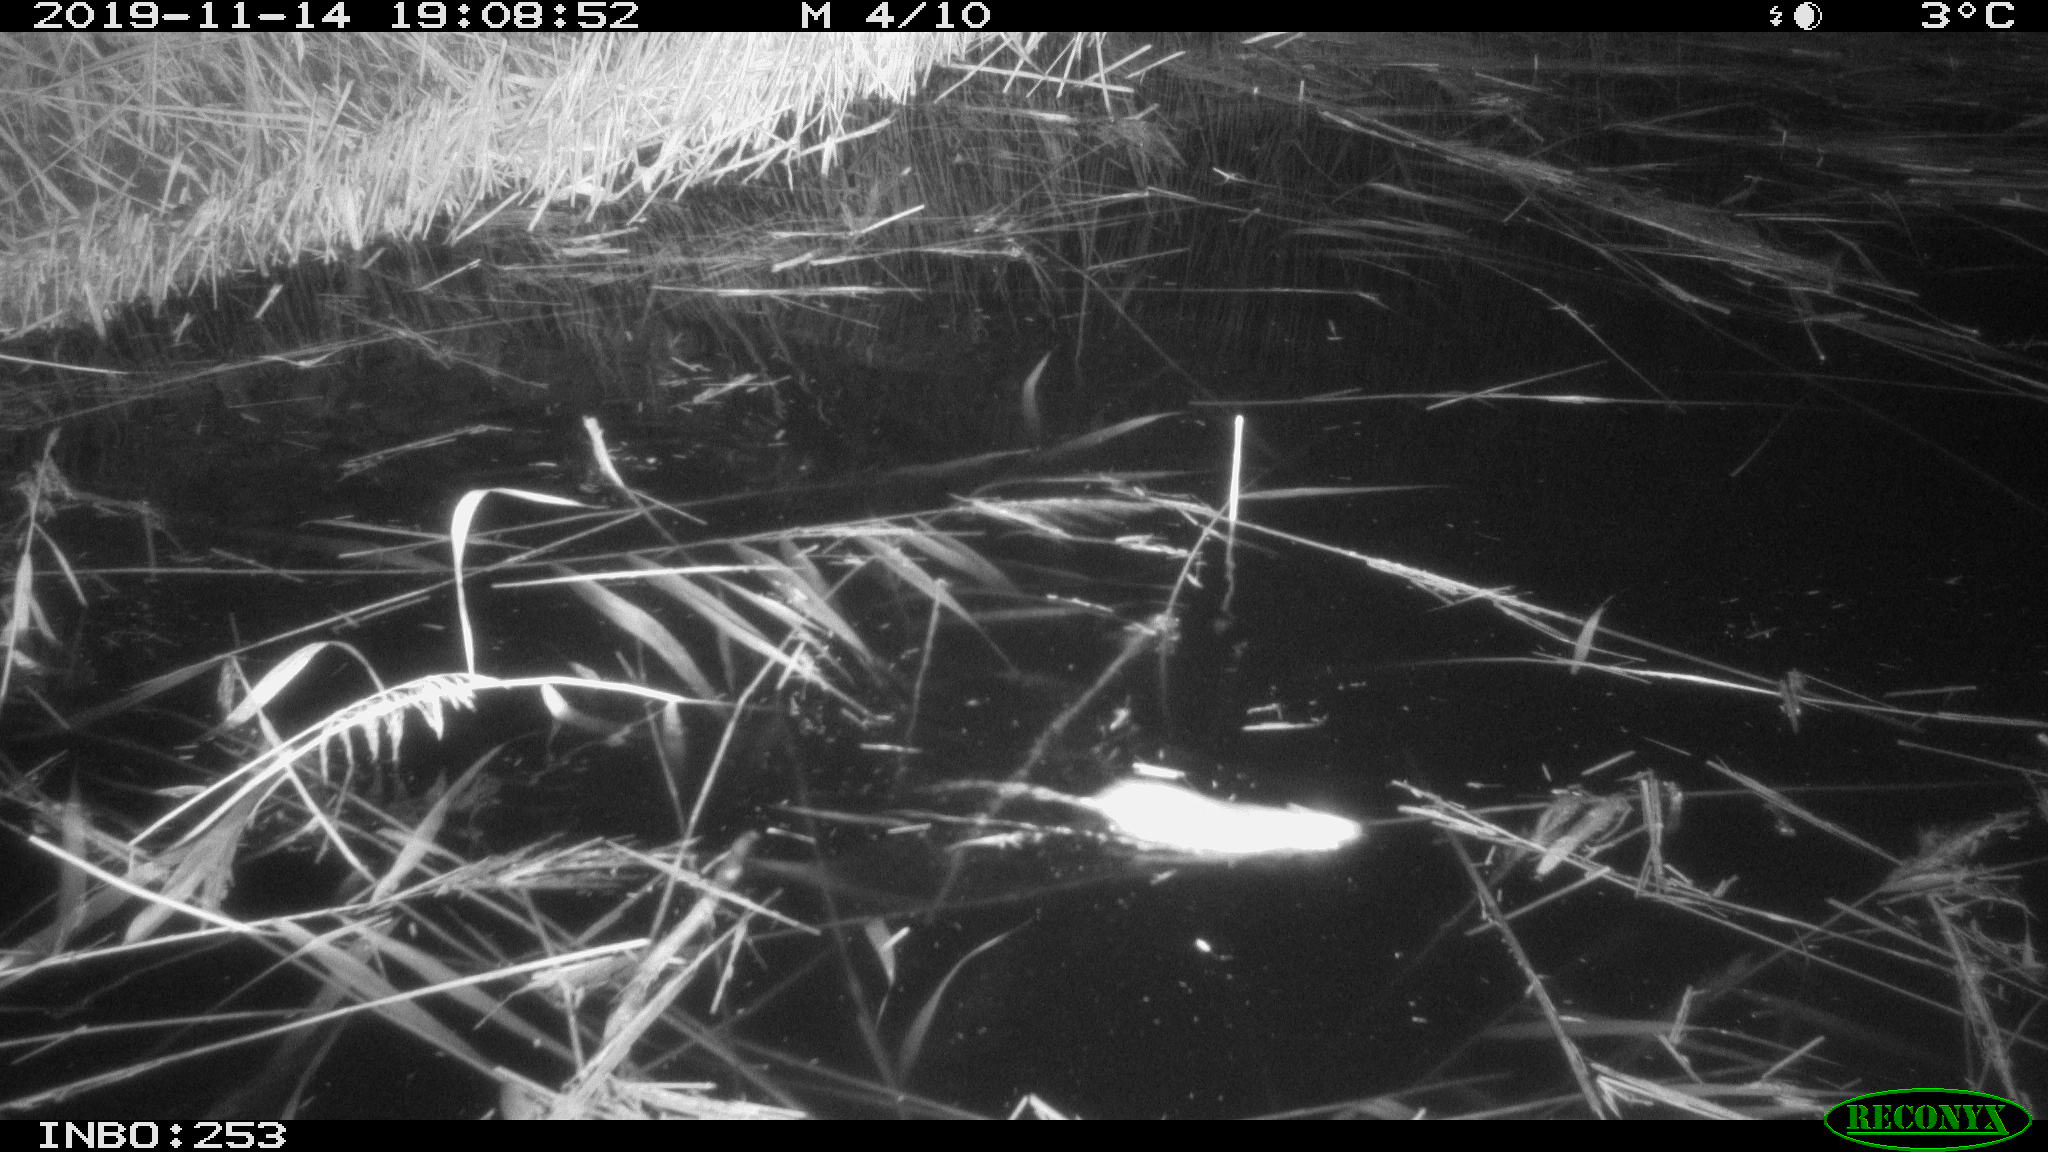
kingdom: Animalia
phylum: Chordata
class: Mammalia
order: Rodentia
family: Muridae
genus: Rattus
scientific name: Rattus norvegicus
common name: Brown rat
